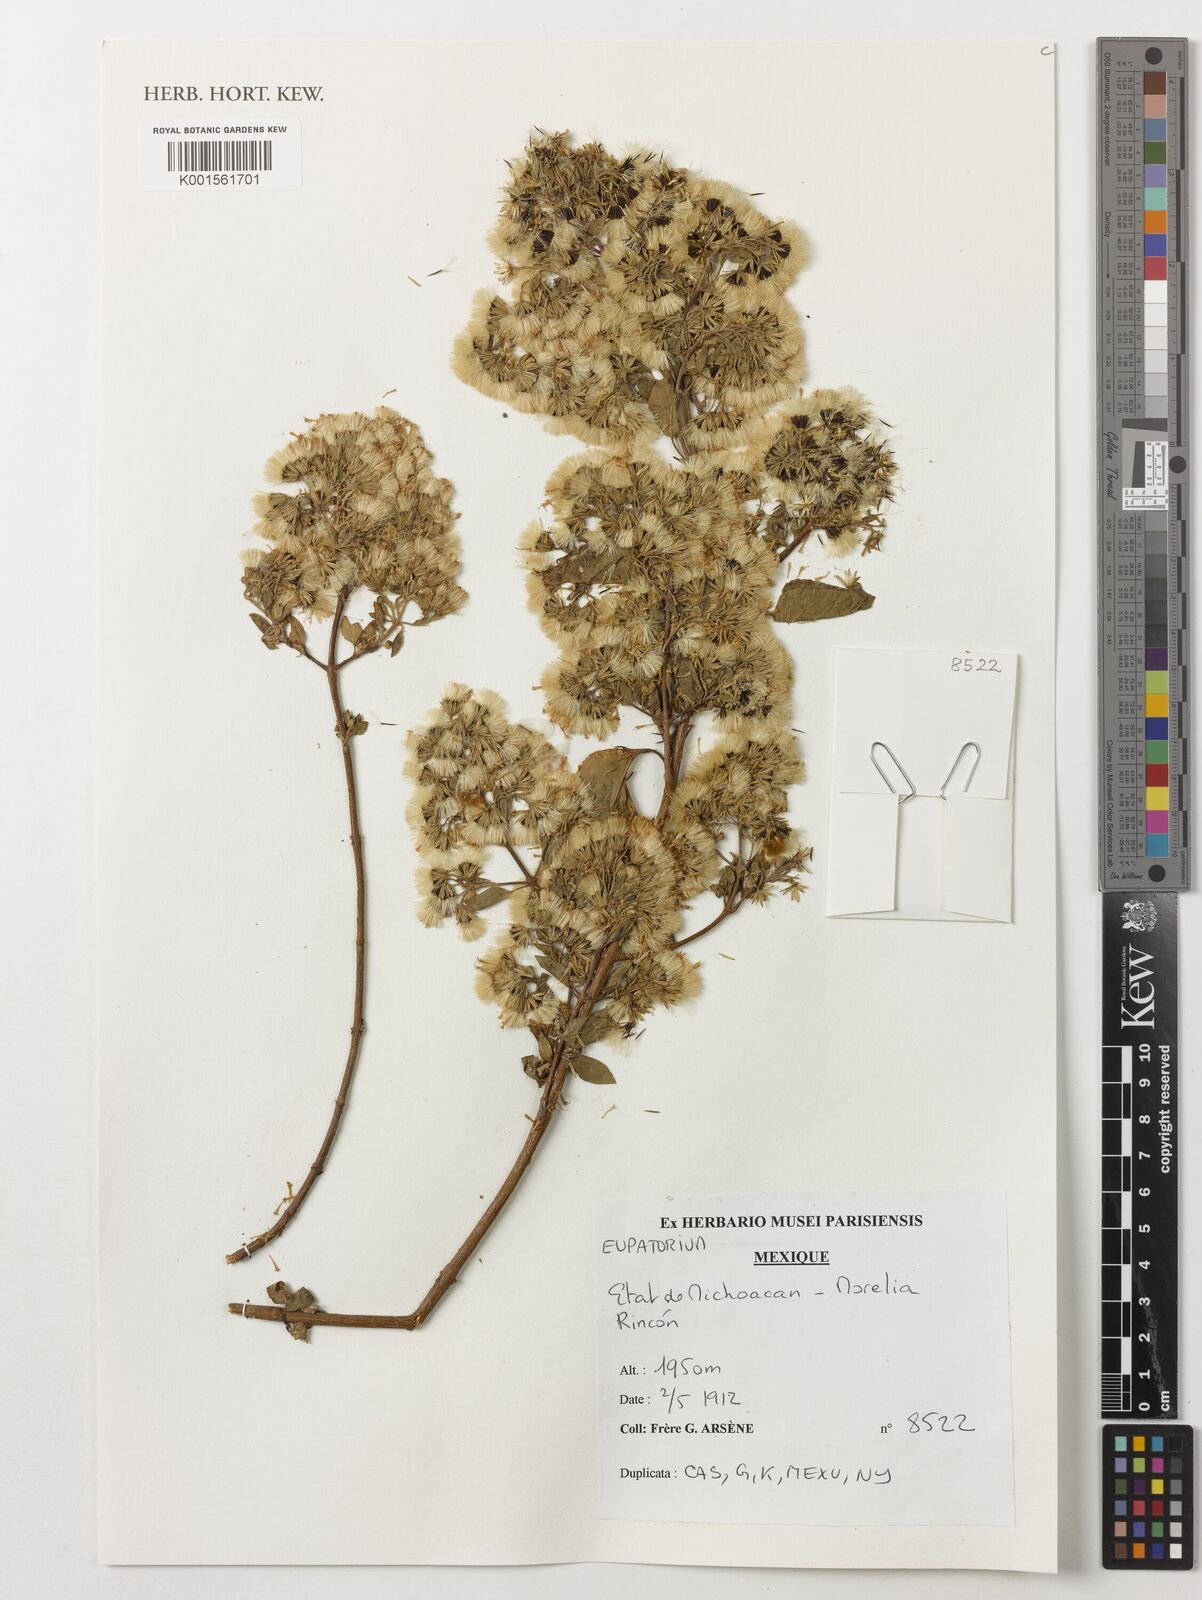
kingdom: Plantae
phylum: Tracheophyta
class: Magnoliopsida
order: Asterales
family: Asteraceae
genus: Eupatorium
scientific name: Eupatorium
